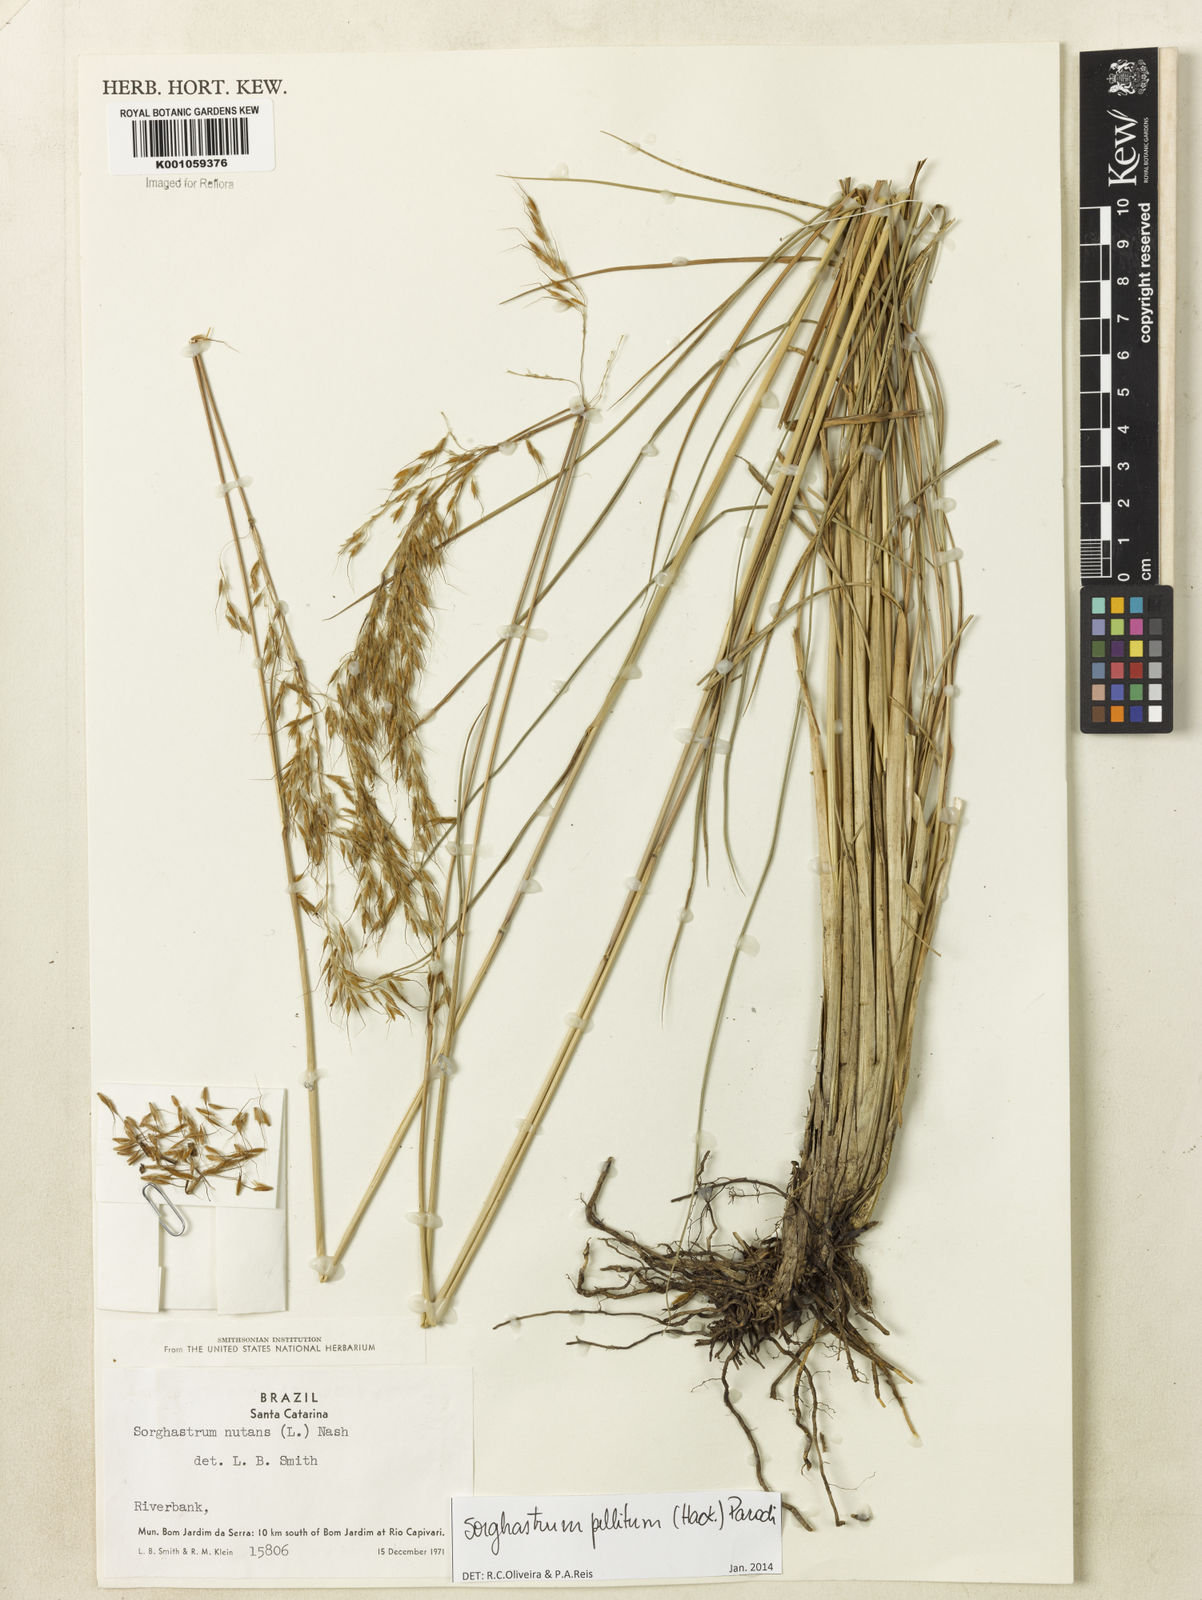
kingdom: Plantae
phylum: Tracheophyta
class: Liliopsida
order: Poales
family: Poaceae
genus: Sorghastrum
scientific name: Sorghastrum pellitum
